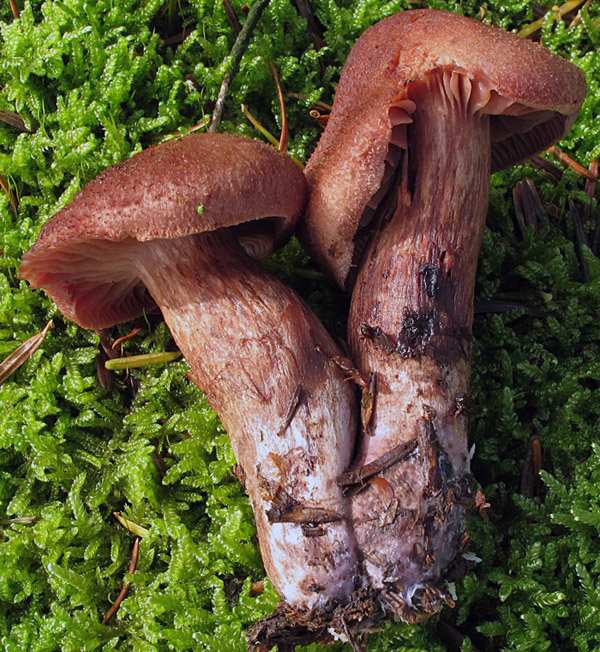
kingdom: Fungi
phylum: Basidiomycota
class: Agaricomycetes
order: Agaricales
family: Cortinariaceae
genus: Cortinarius
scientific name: Cortinarius ectypus
